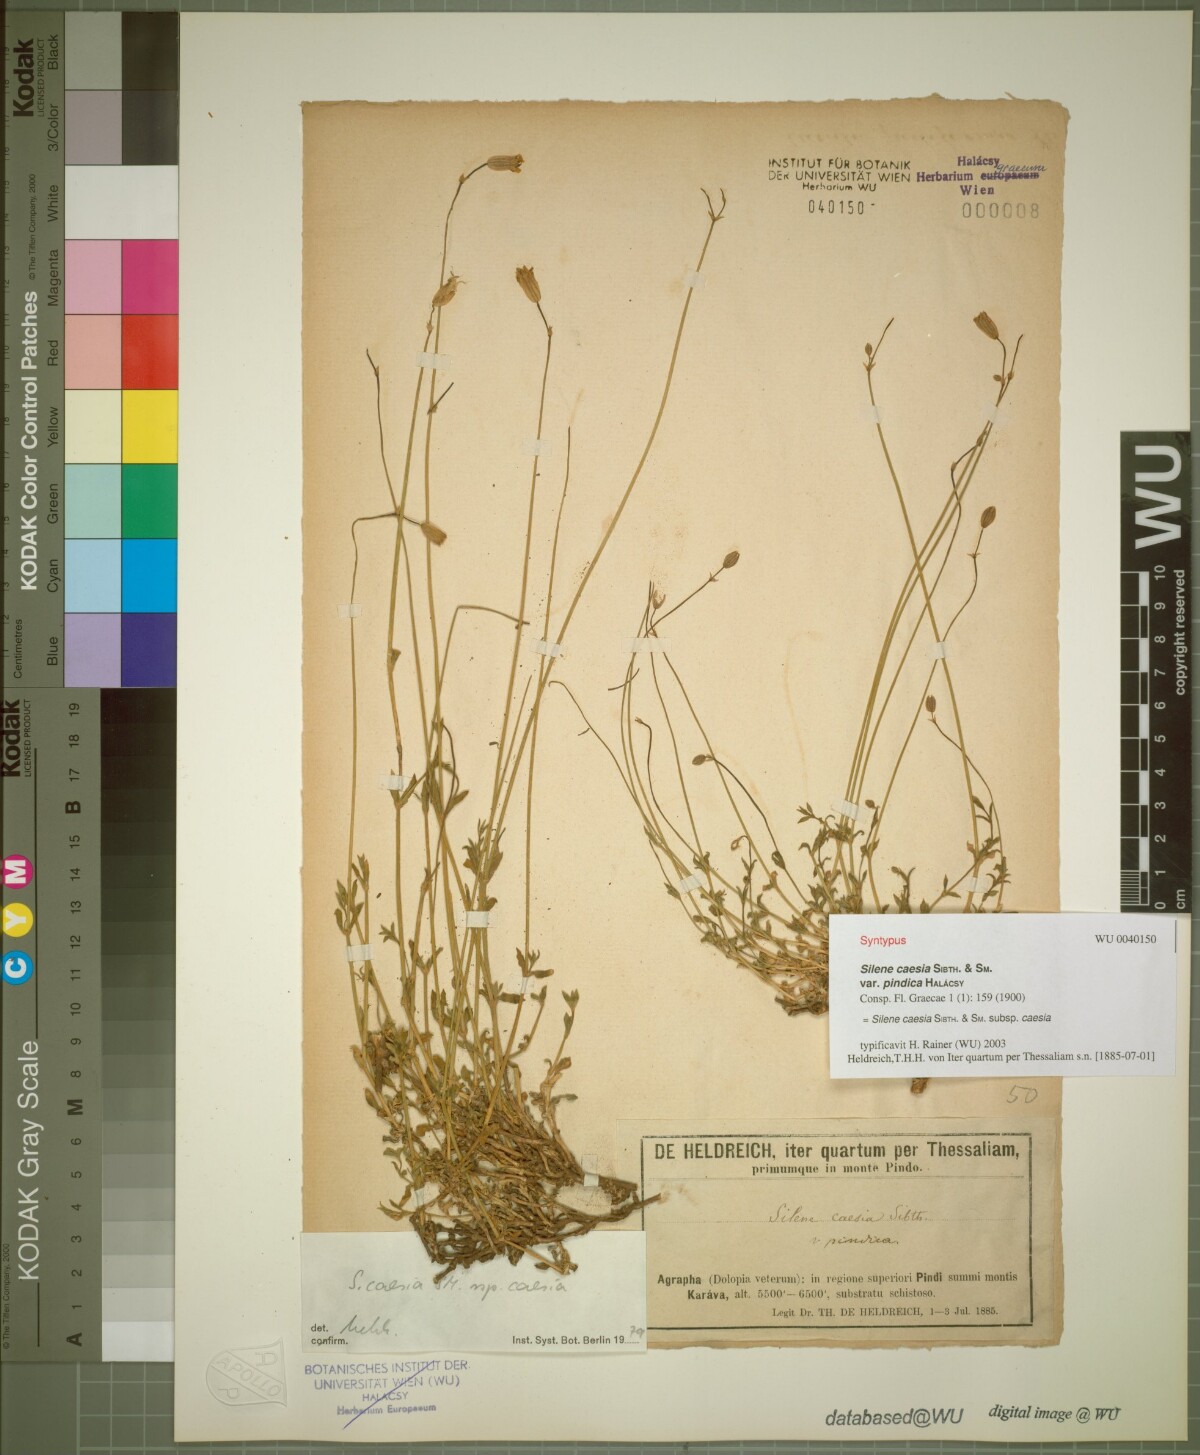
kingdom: Plantae
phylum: Tracheophyta
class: Magnoliopsida
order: Caryophyllales
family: Caryophyllaceae
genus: Silene
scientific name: Silene caesia
